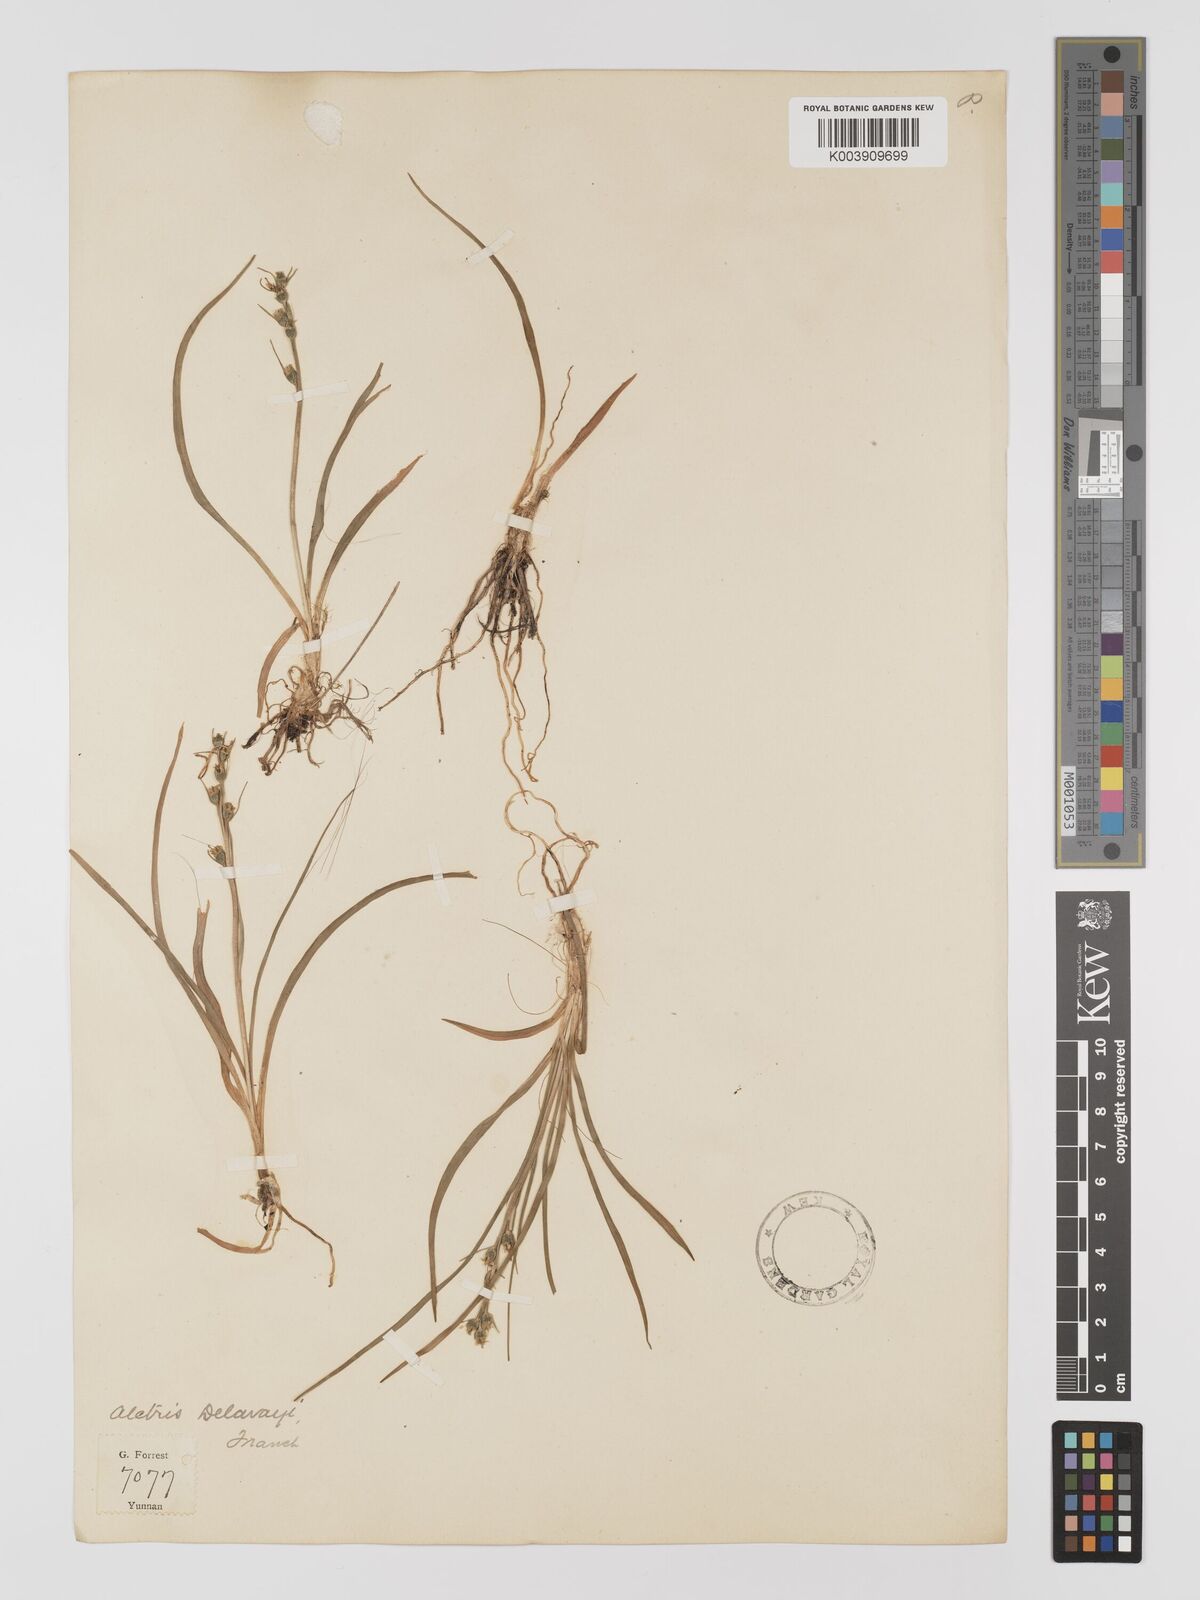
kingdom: Plantae
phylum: Tracheophyta
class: Liliopsida
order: Dioscoreales
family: Nartheciaceae
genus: Aletris
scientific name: Aletris foliosa
